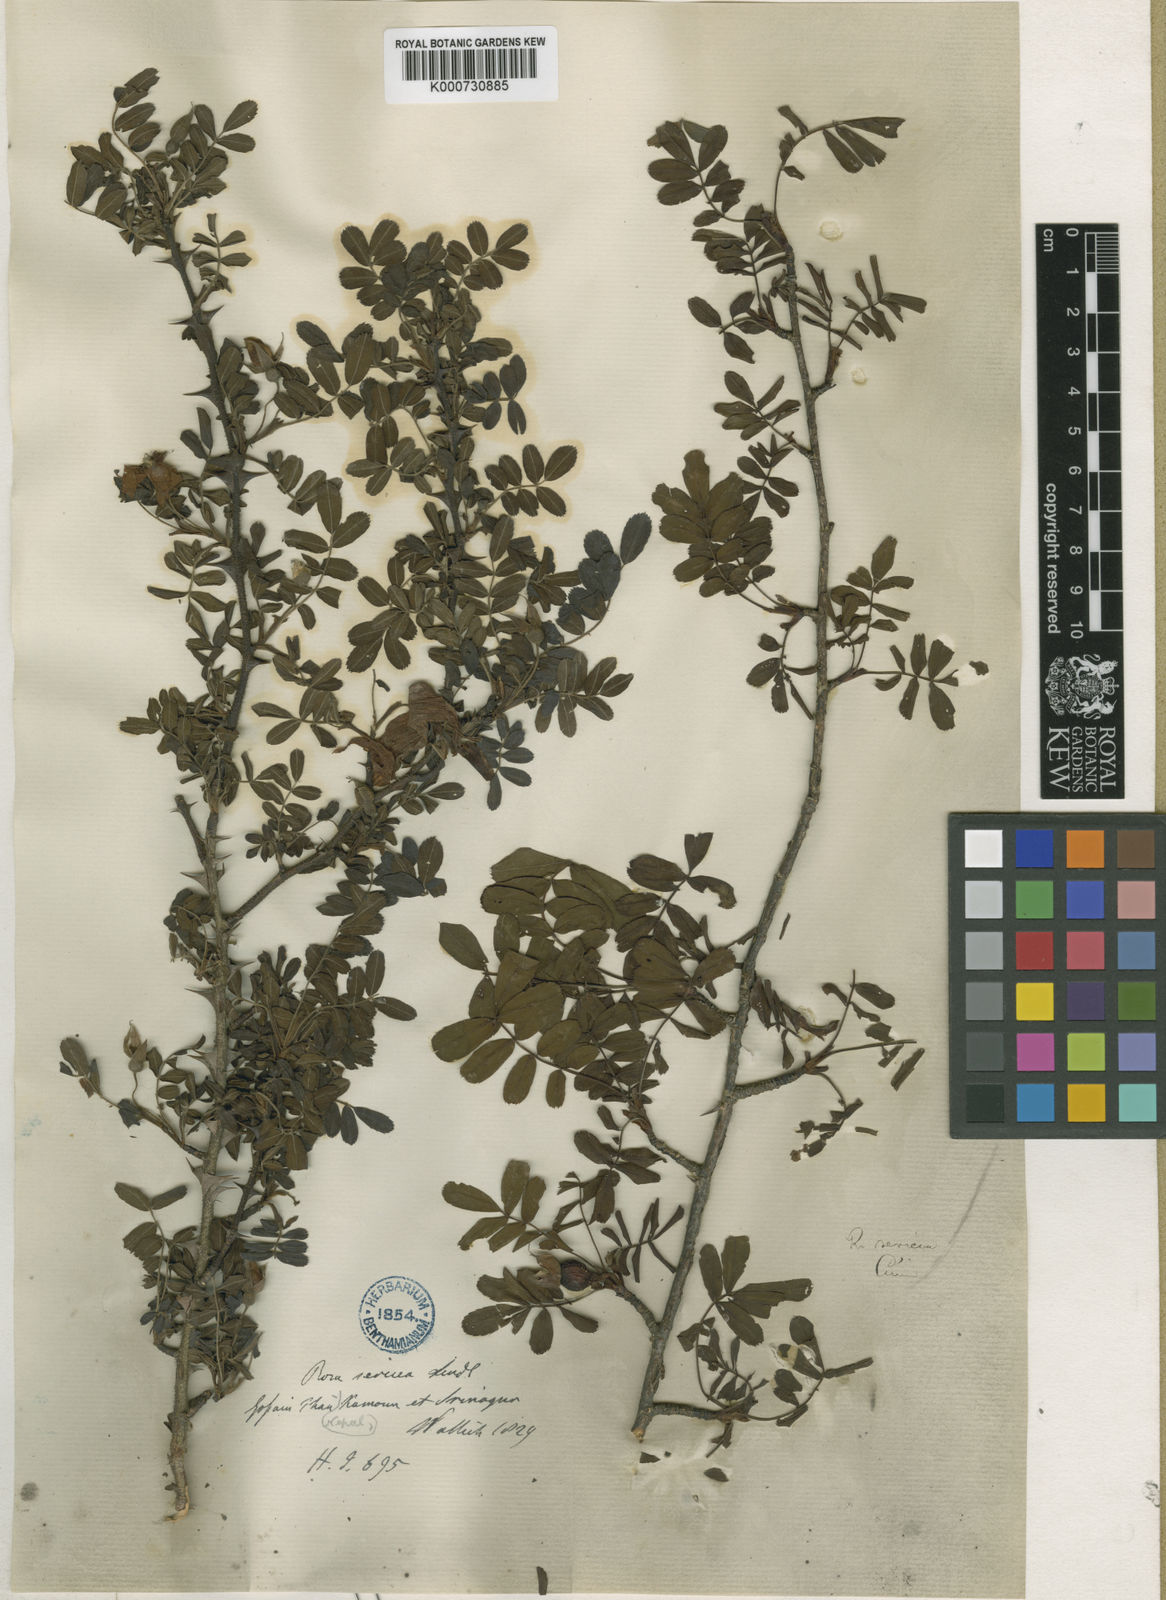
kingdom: Plantae
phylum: Tracheophyta
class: Magnoliopsida
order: Rosales
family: Rosaceae
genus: Rosa
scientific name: Rosa sericea
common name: Silky rose
